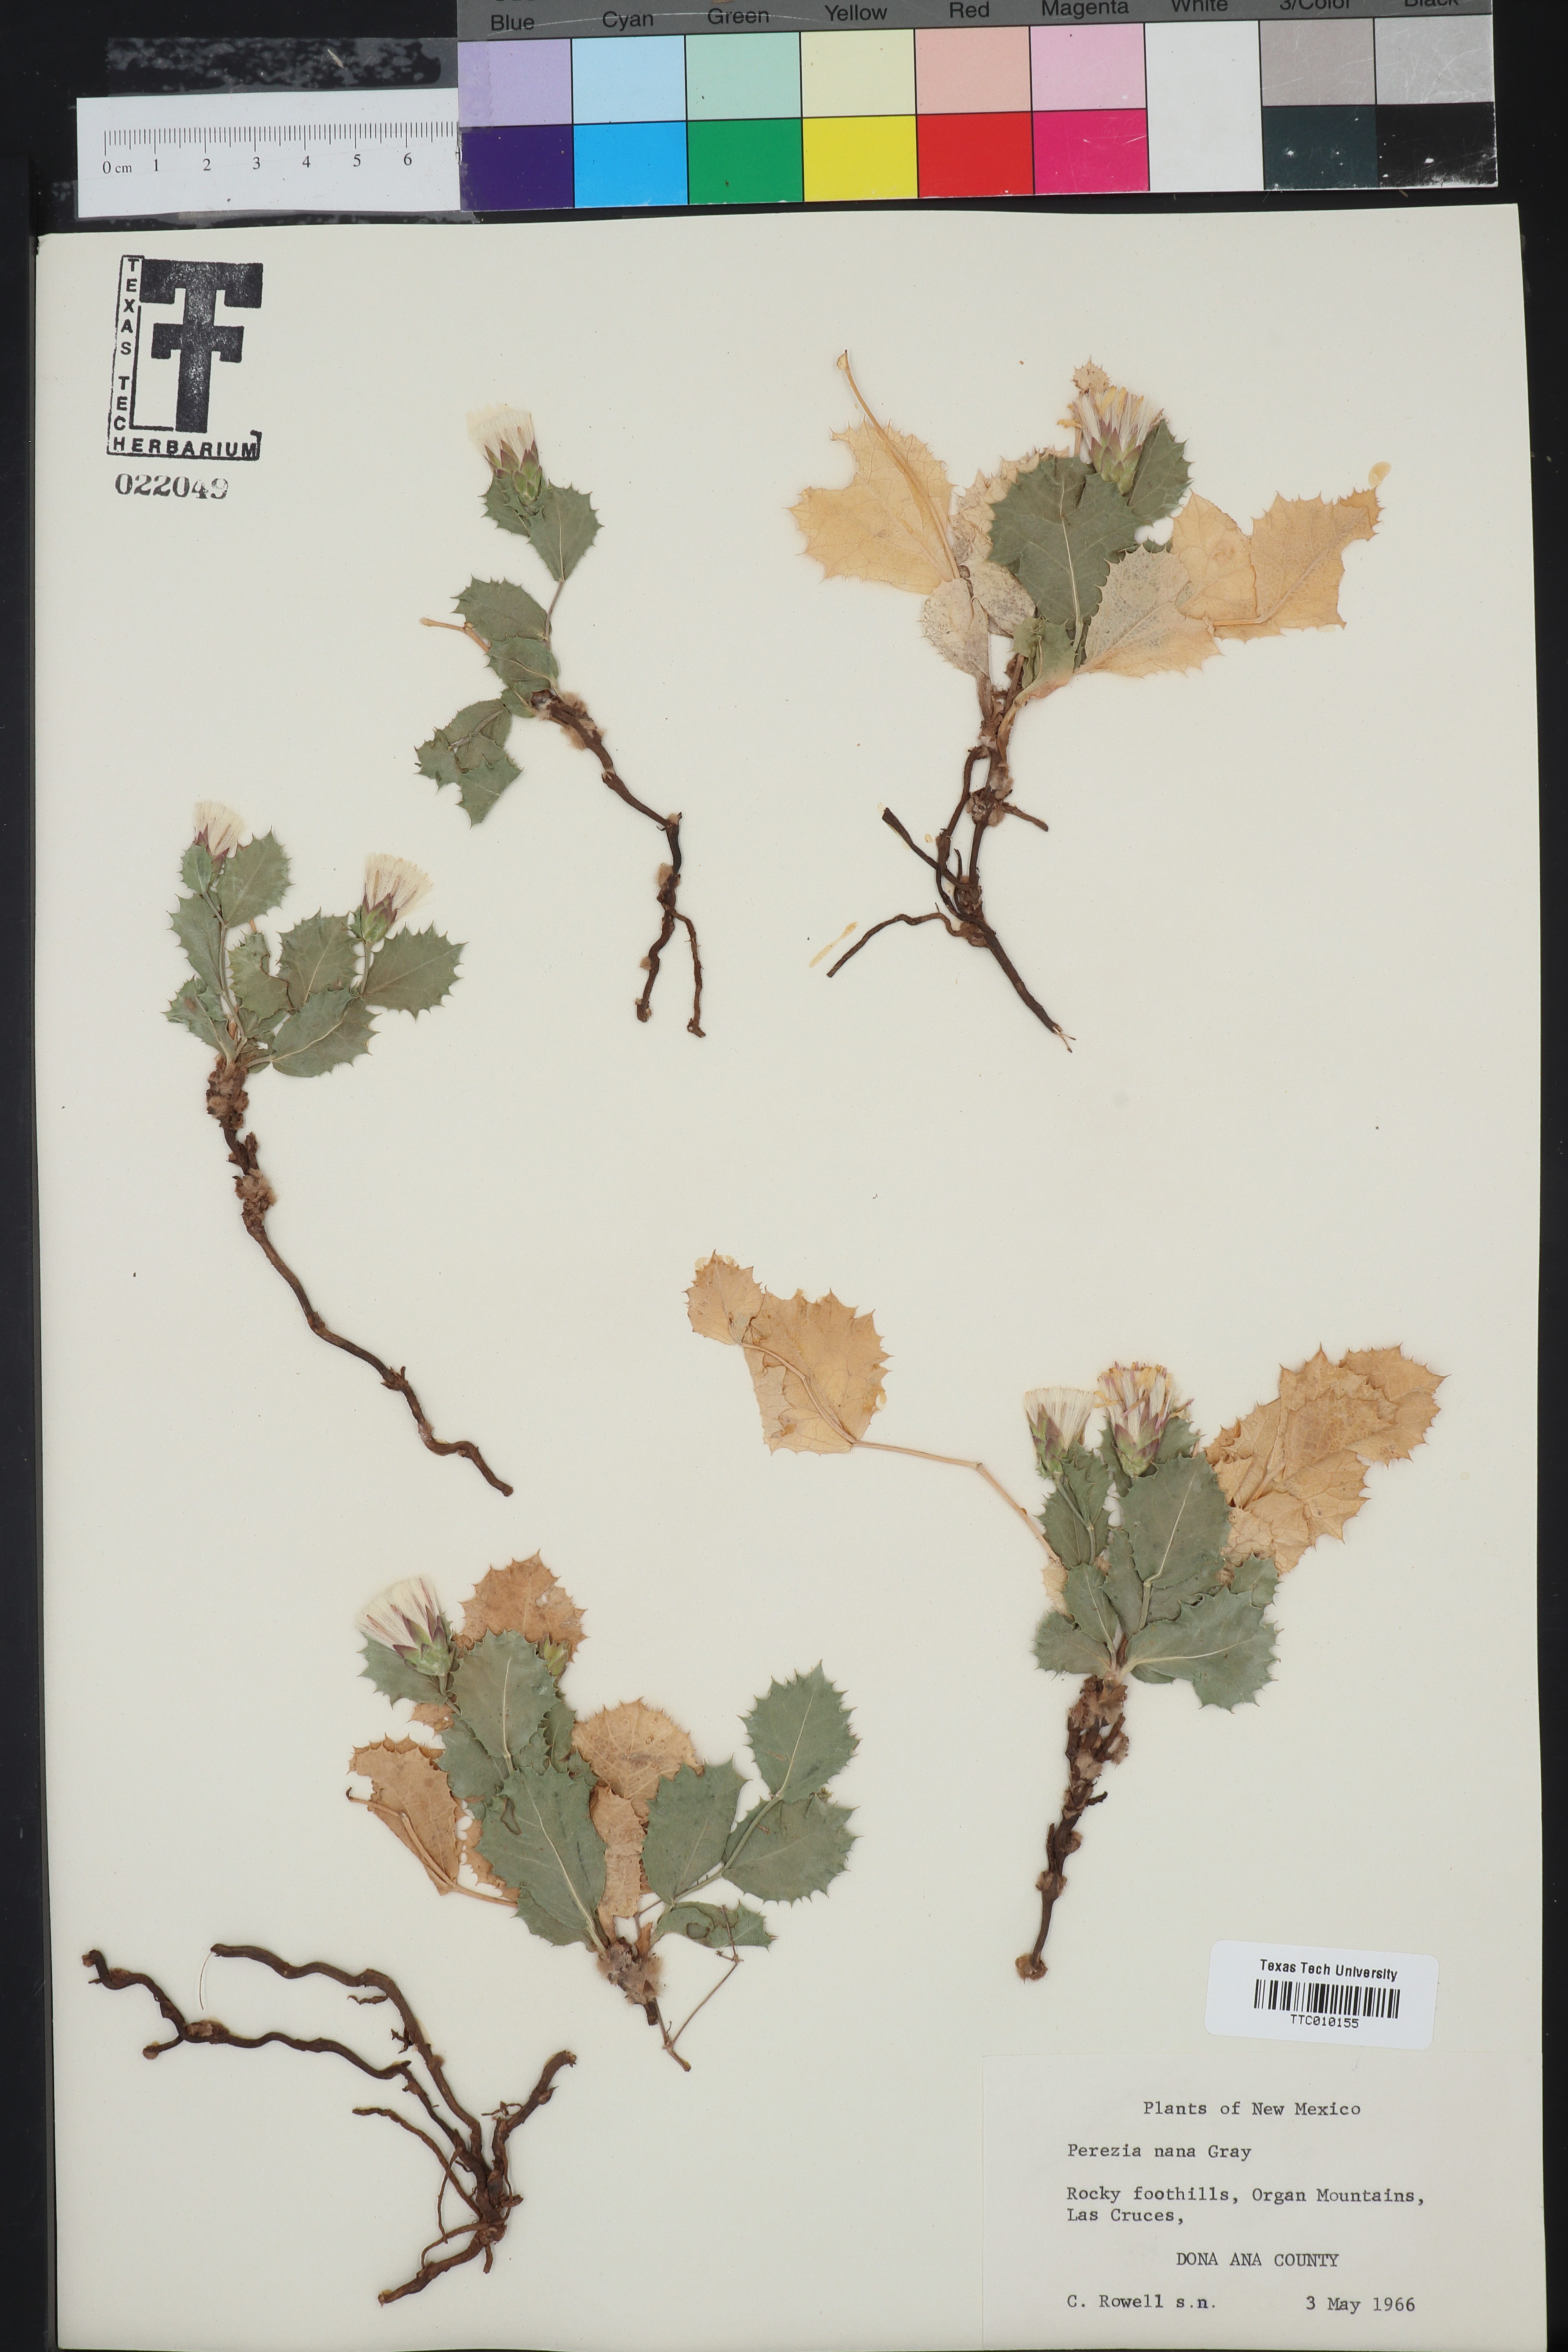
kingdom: Plantae
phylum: Tracheophyta
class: Magnoliopsida
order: Asterales
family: Asteraceae
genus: Acourtia
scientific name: Acourtia nana
